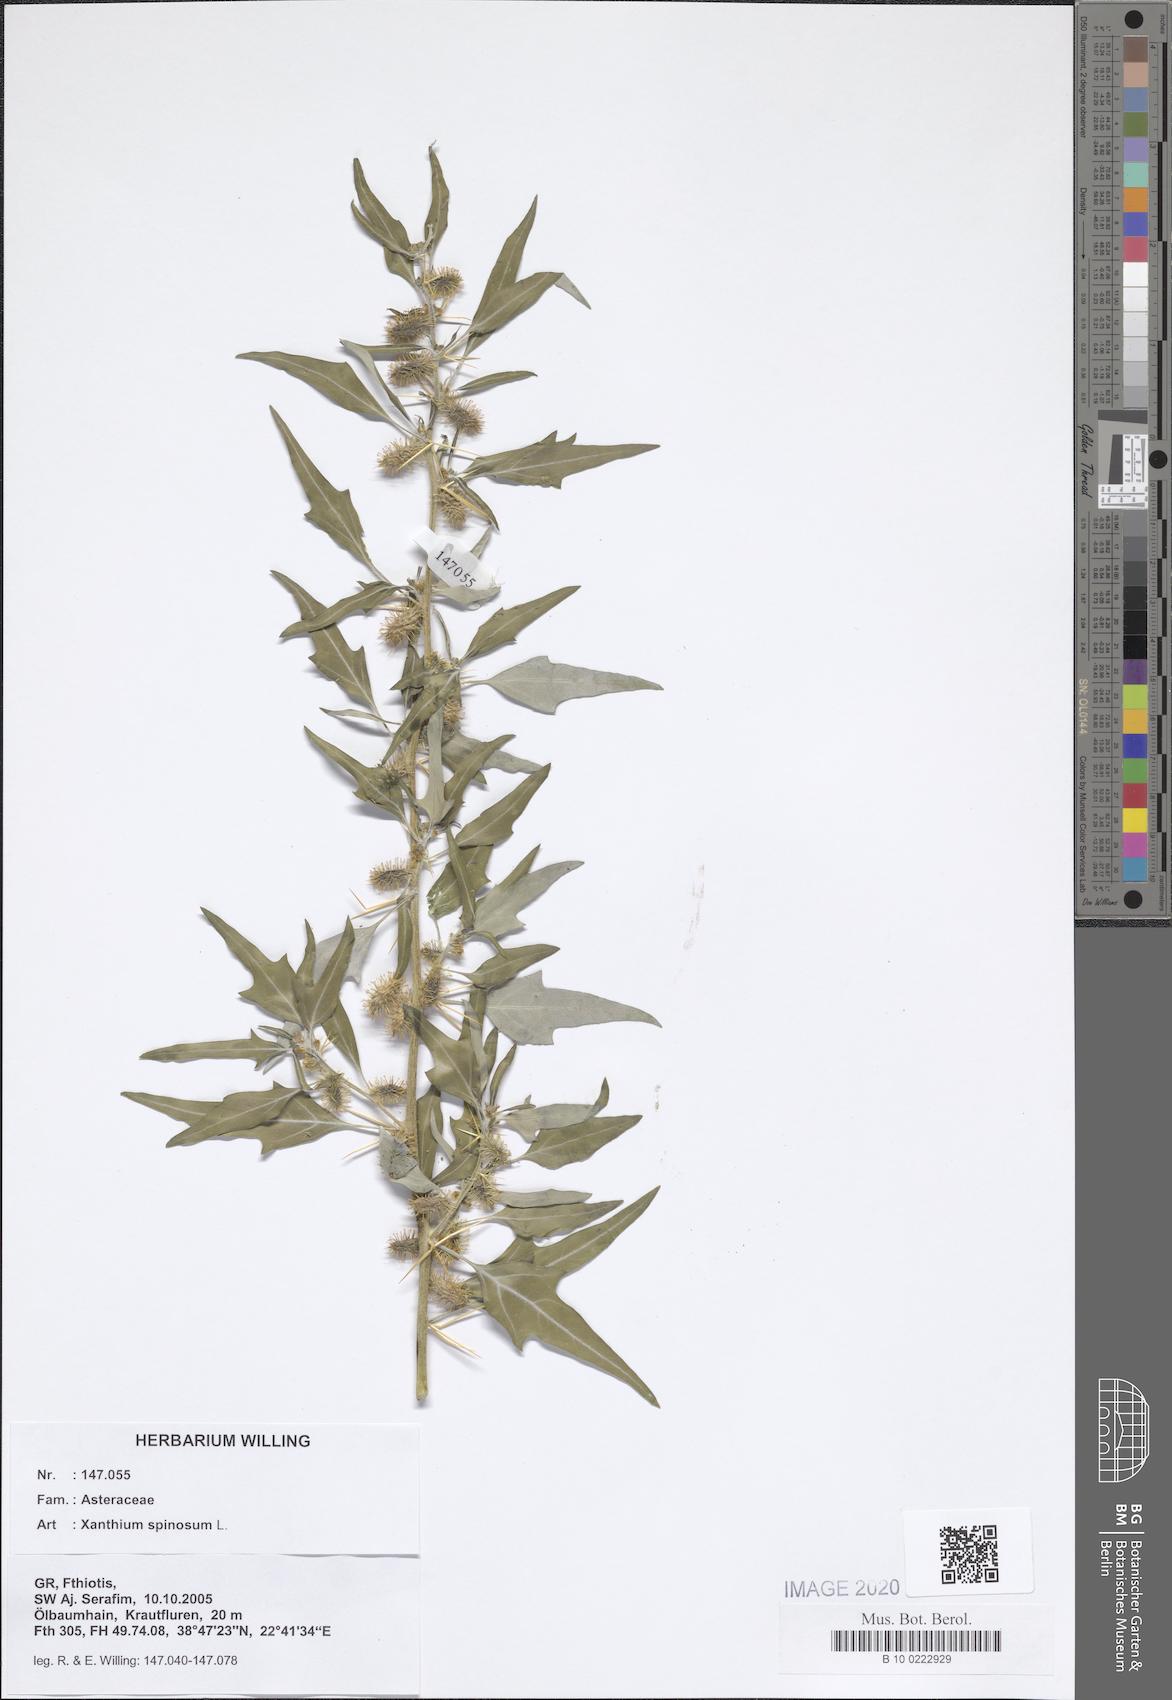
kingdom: Plantae
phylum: Tracheophyta
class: Magnoliopsida
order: Asterales
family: Asteraceae
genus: Xanthium
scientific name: Xanthium spinosum
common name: Spiny cocklebur
